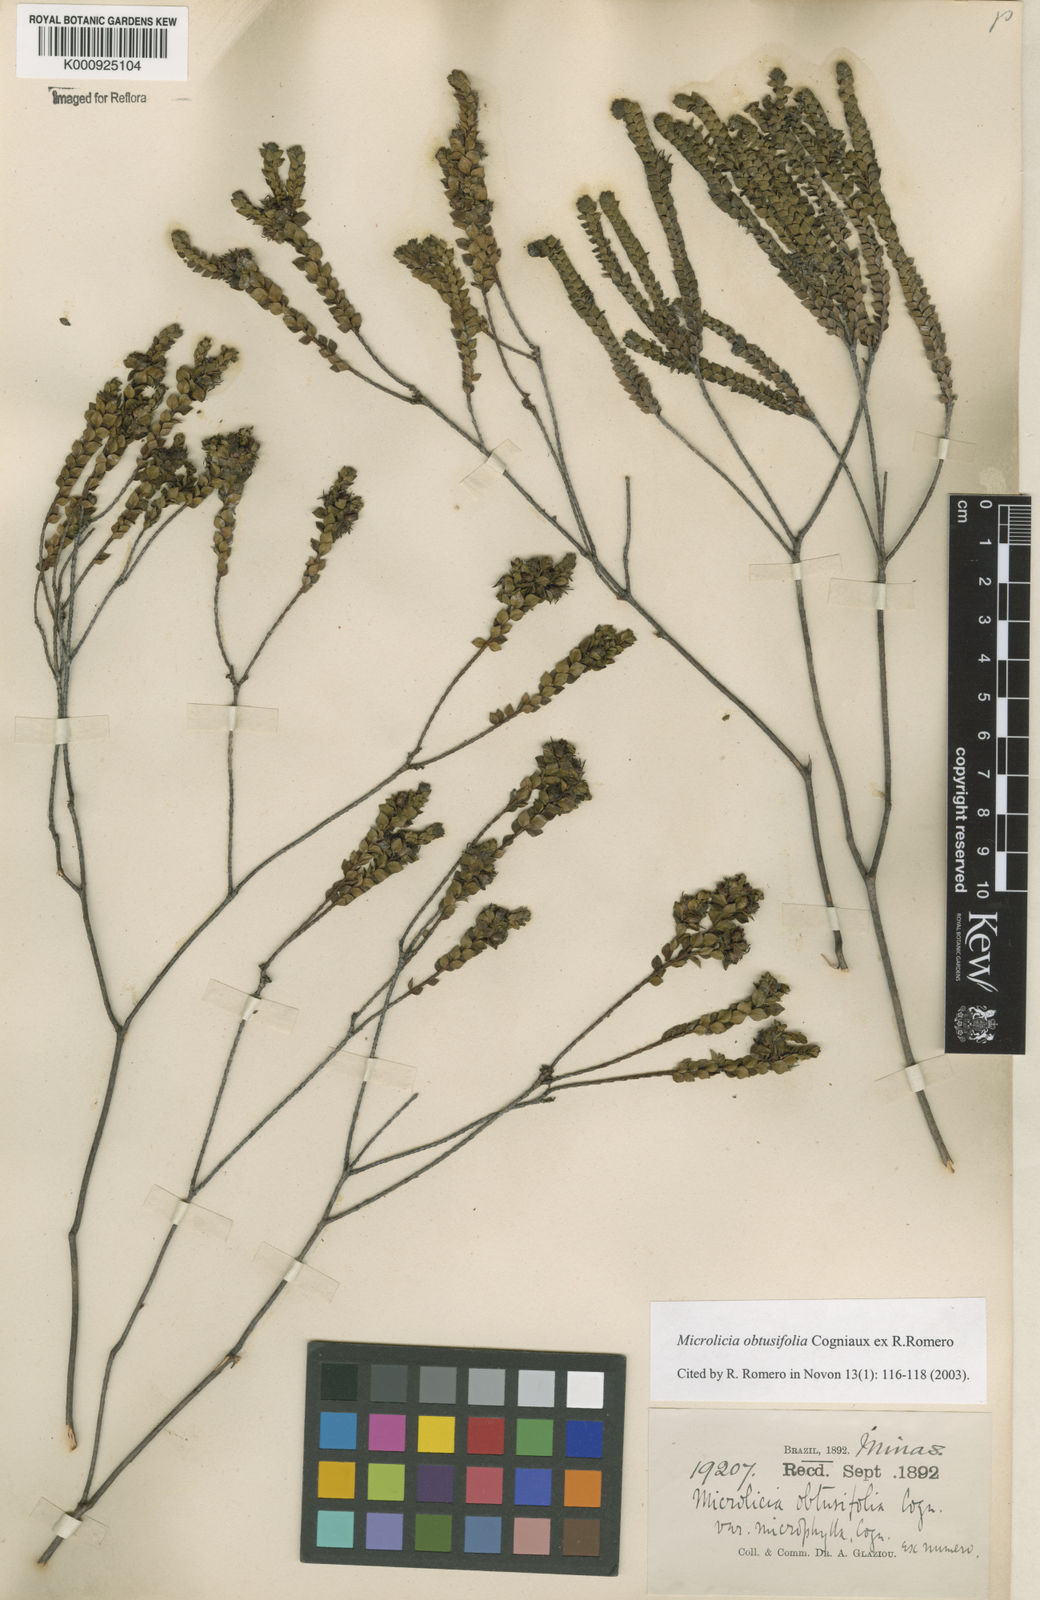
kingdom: Plantae
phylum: Tracheophyta
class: Magnoliopsida
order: Myrtales
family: Melastomataceae
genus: Microlicia
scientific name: Microlicia obtusifolia
